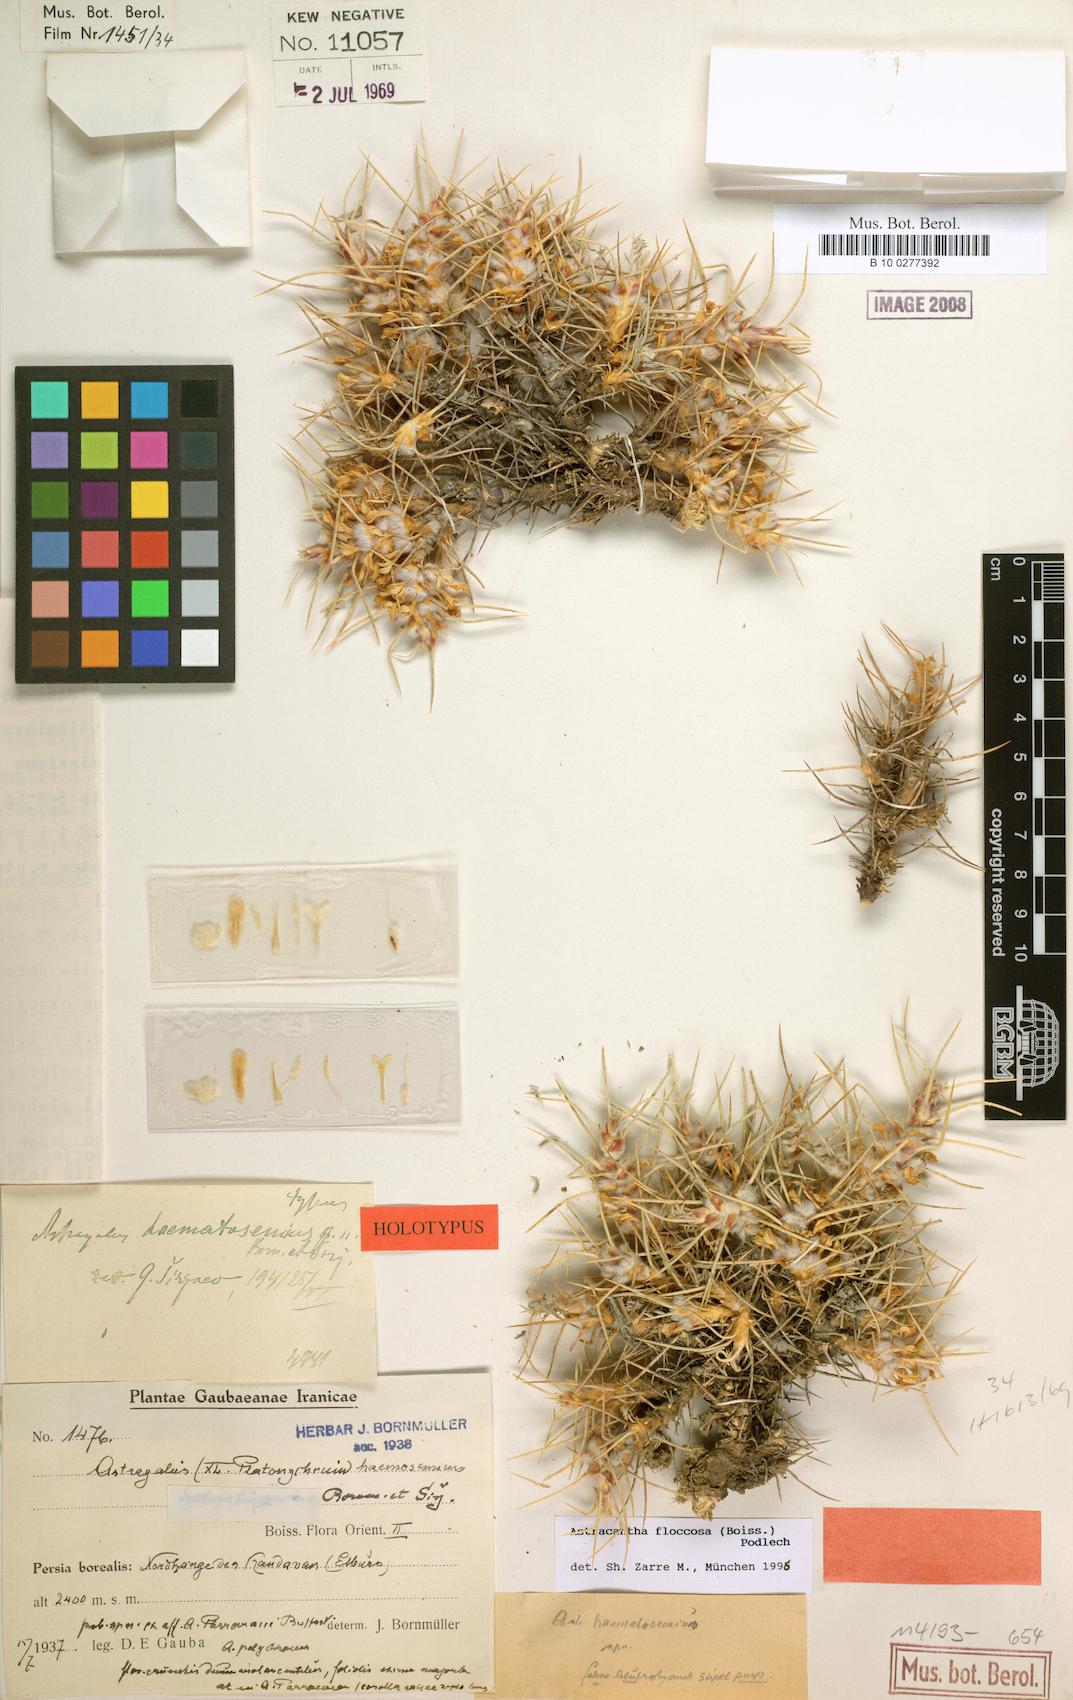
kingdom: Plantae
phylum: Tracheophyta
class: Magnoliopsida
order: Fabales
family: Fabaceae
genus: Astragalus
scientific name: Astragalus floccosus
